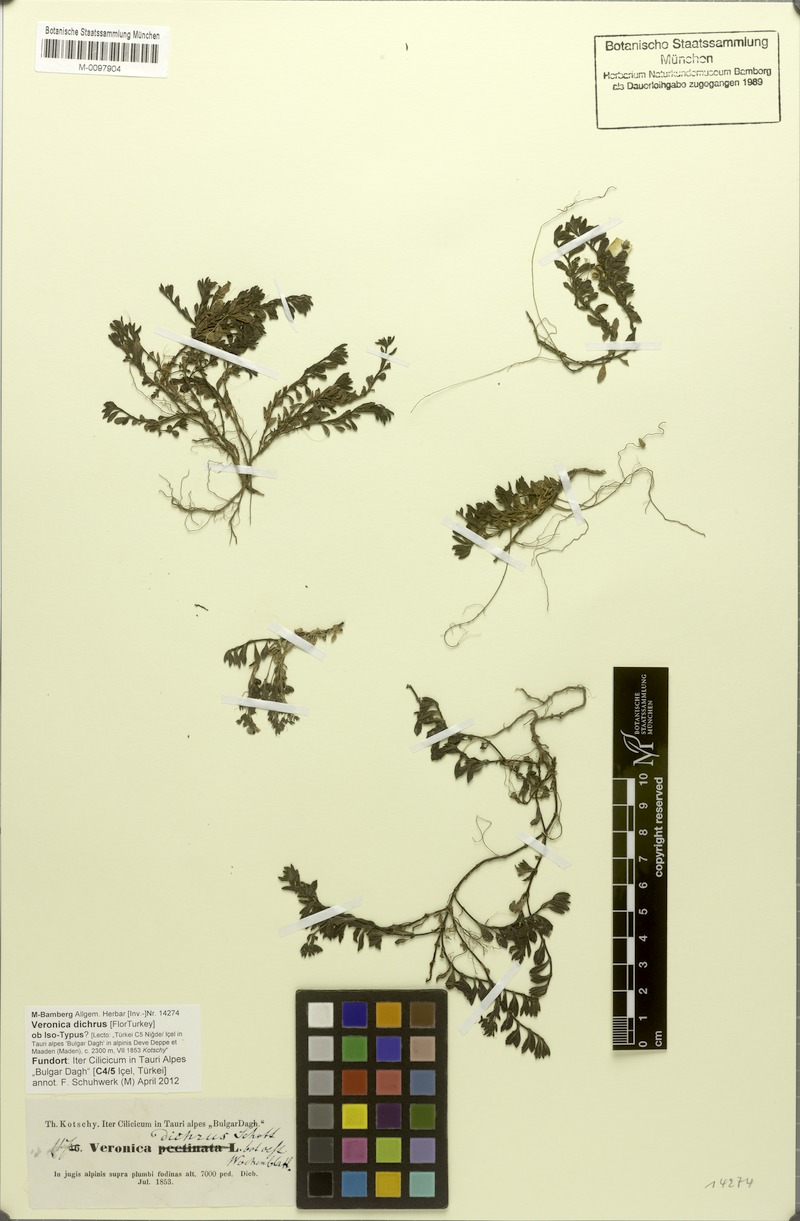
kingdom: Plantae
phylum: Tracheophyta
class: Magnoliopsida
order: Lamiales
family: Plantaginaceae
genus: Veronica
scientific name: Veronica dichrus
